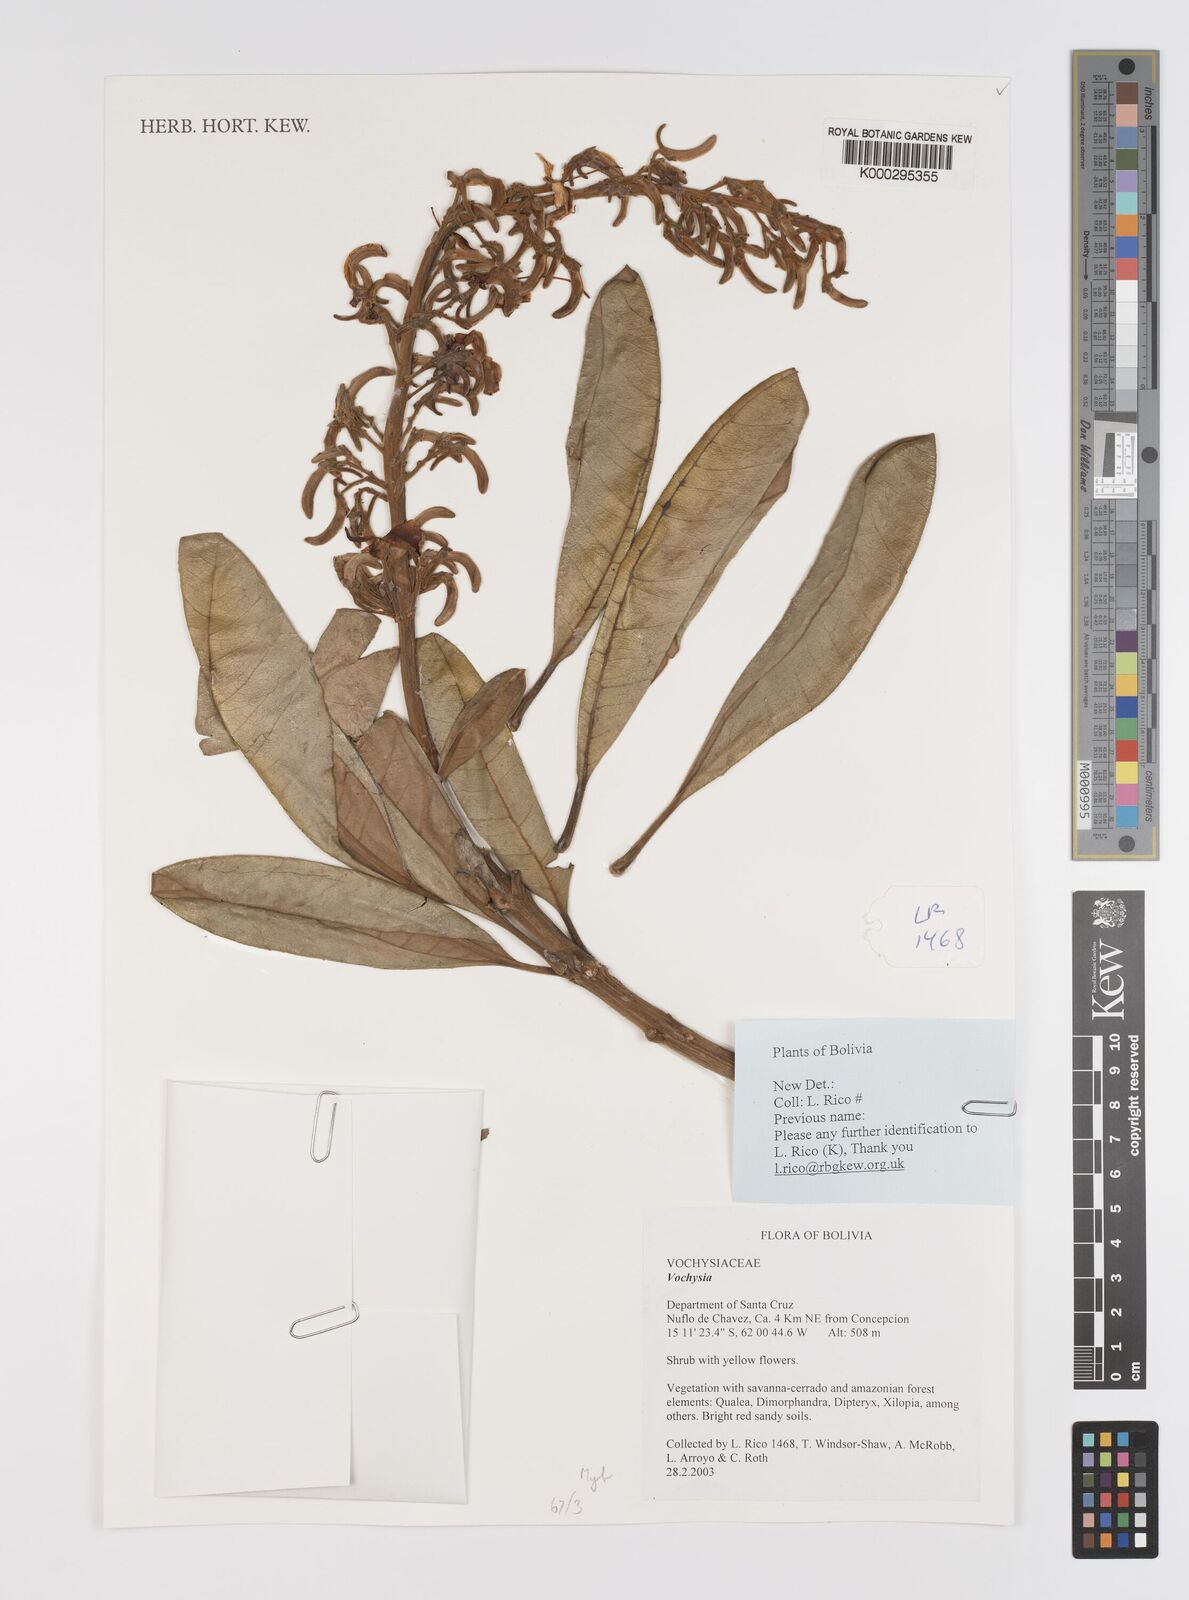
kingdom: Plantae
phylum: Tracheophyta
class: Magnoliopsida
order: Myrtales
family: Vochysiaceae
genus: Vochysia
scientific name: Vochysia
